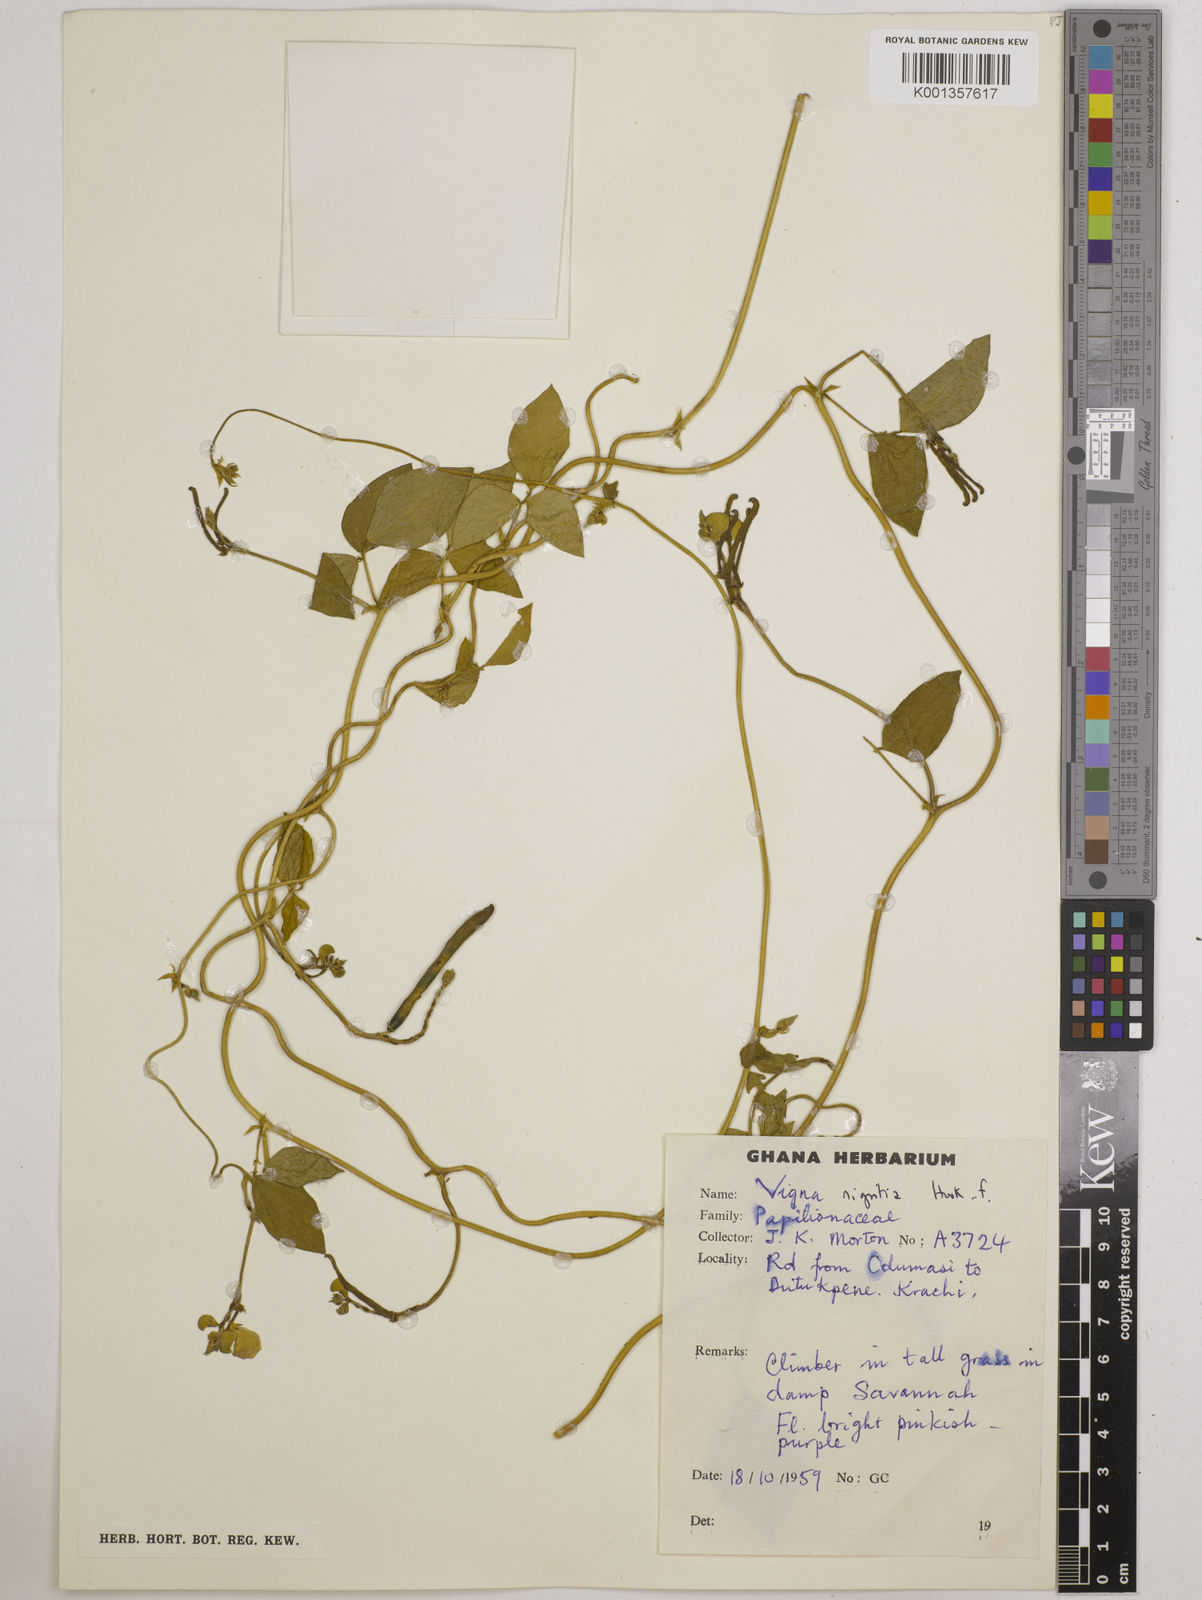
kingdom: Plantae
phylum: Tracheophyta
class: Magnoliopsida
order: Fabales
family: Fabaceae
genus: Vigna
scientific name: Vigna nigritia
